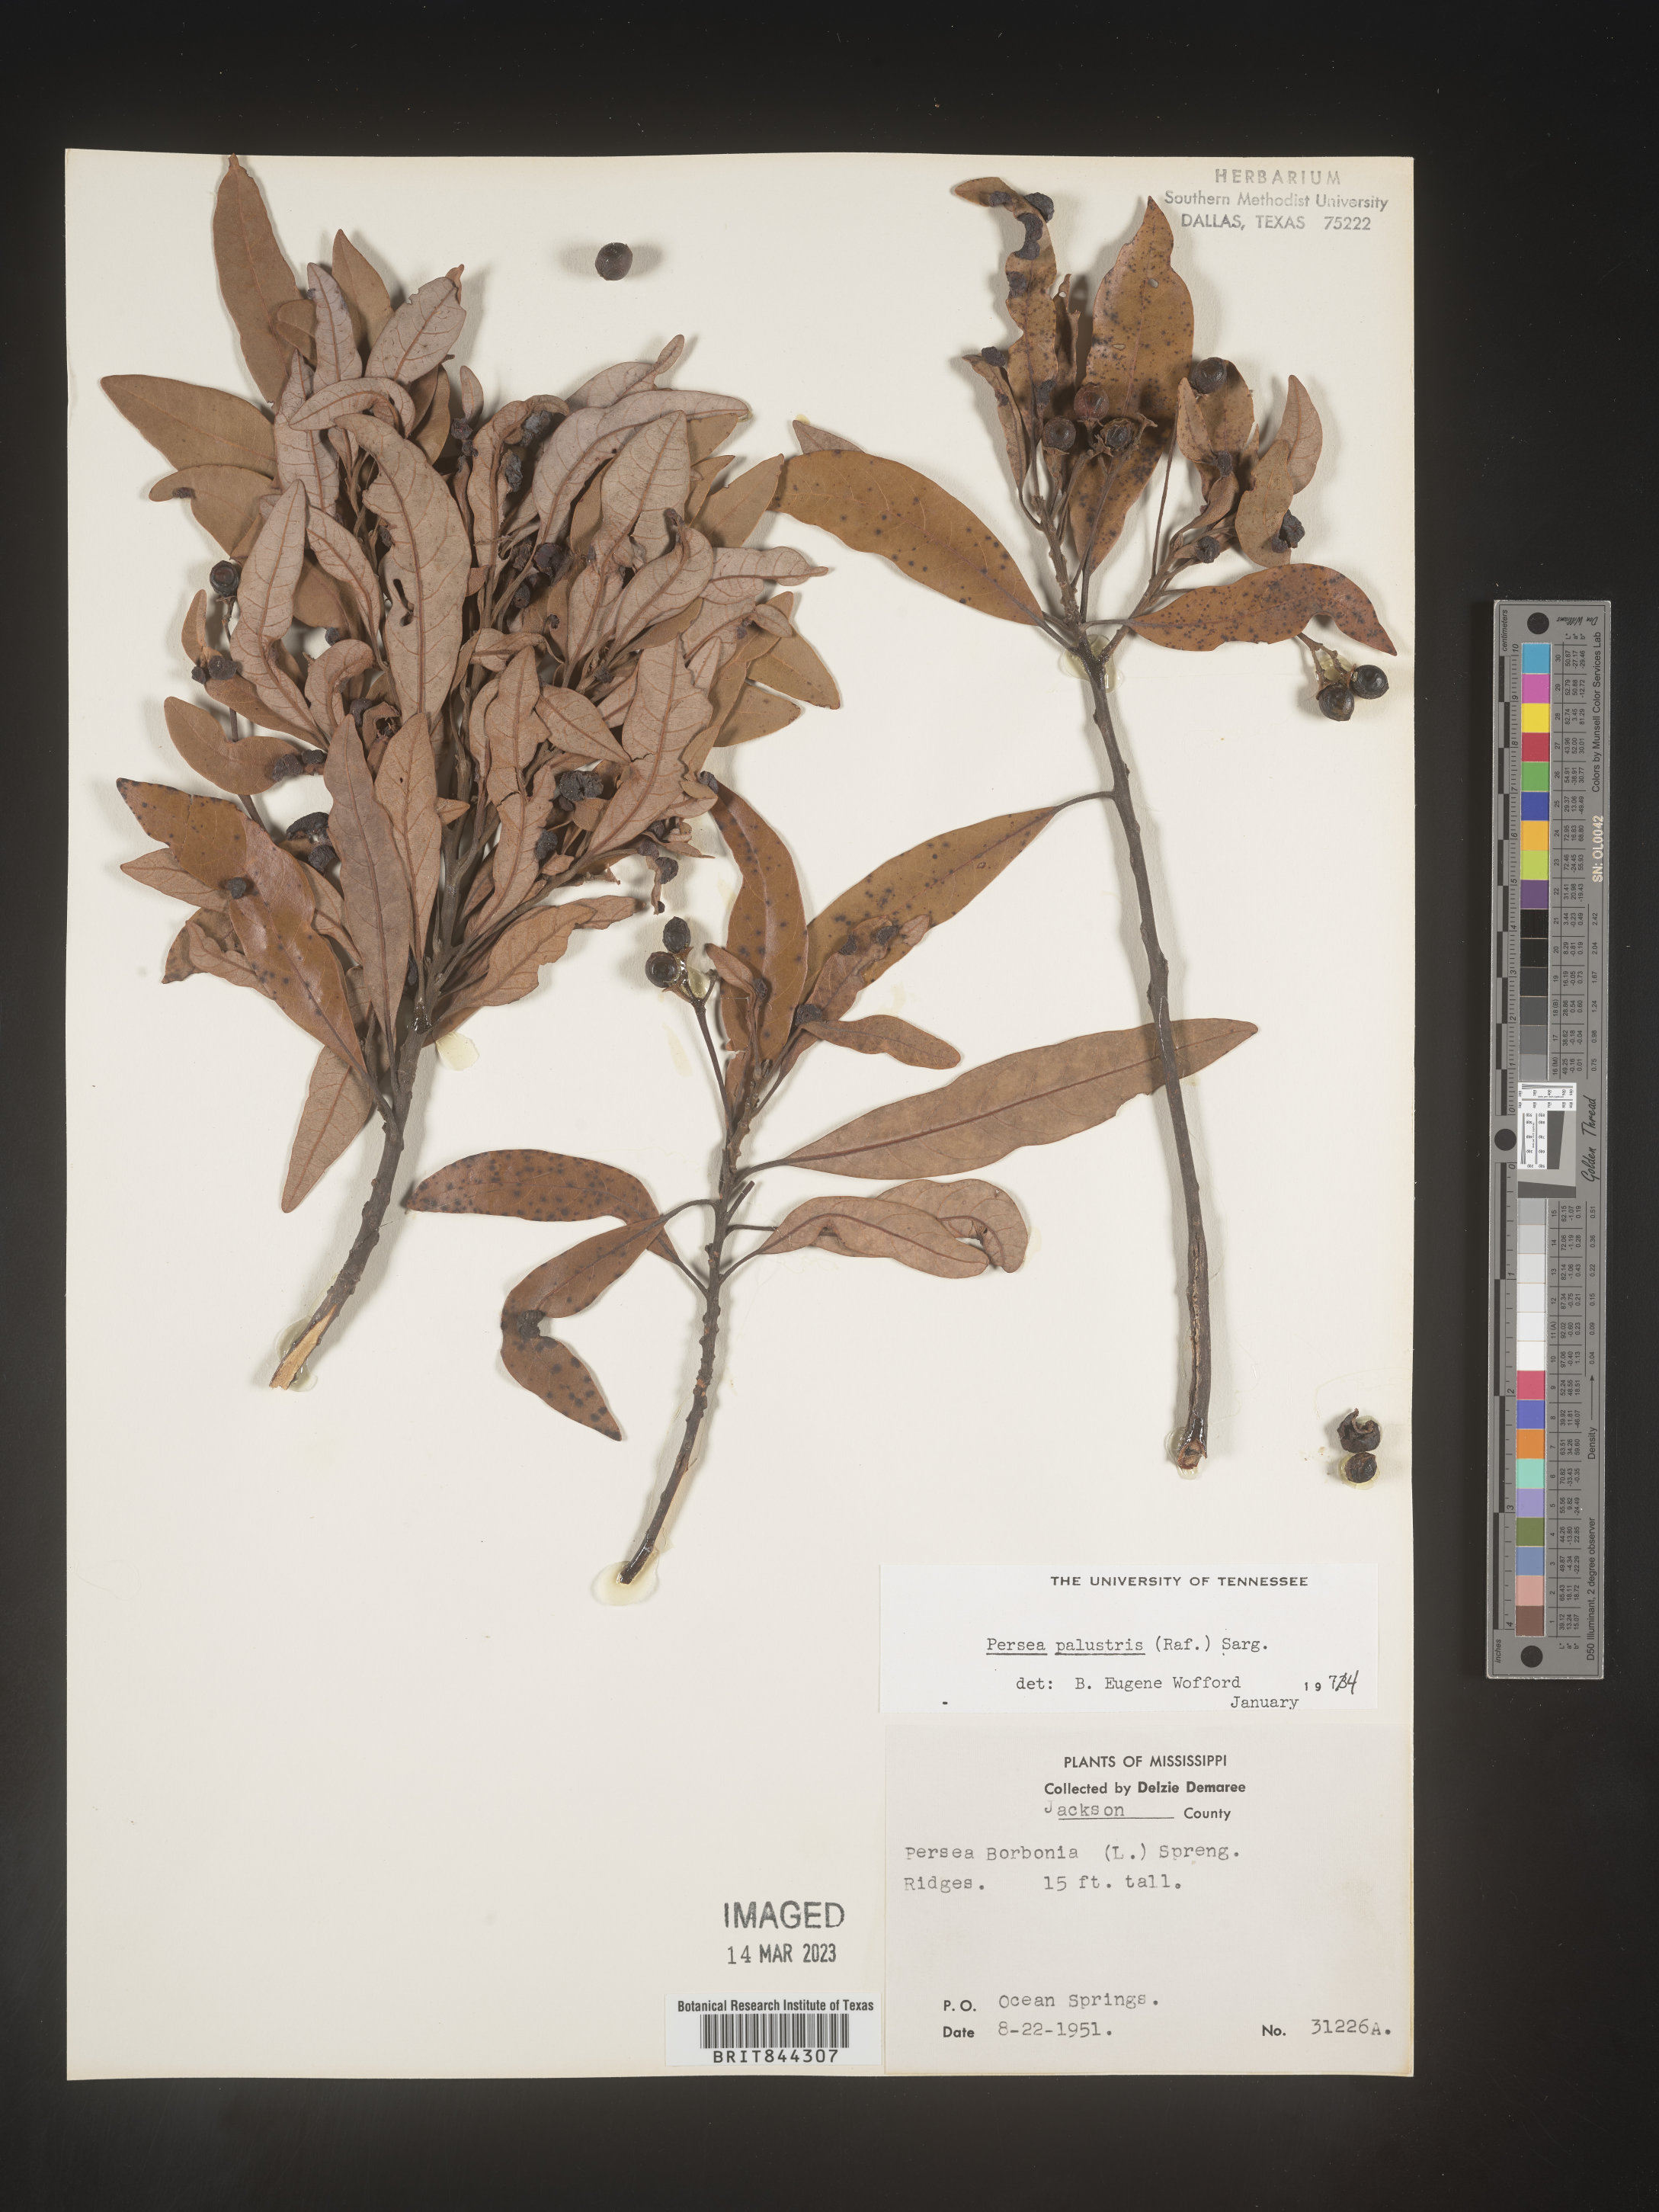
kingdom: Plantae
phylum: Tracheophyta
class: Magnoliopsida
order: Laurales
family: Lauraceae
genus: Persea
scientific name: Persea palustris
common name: Swampbay
